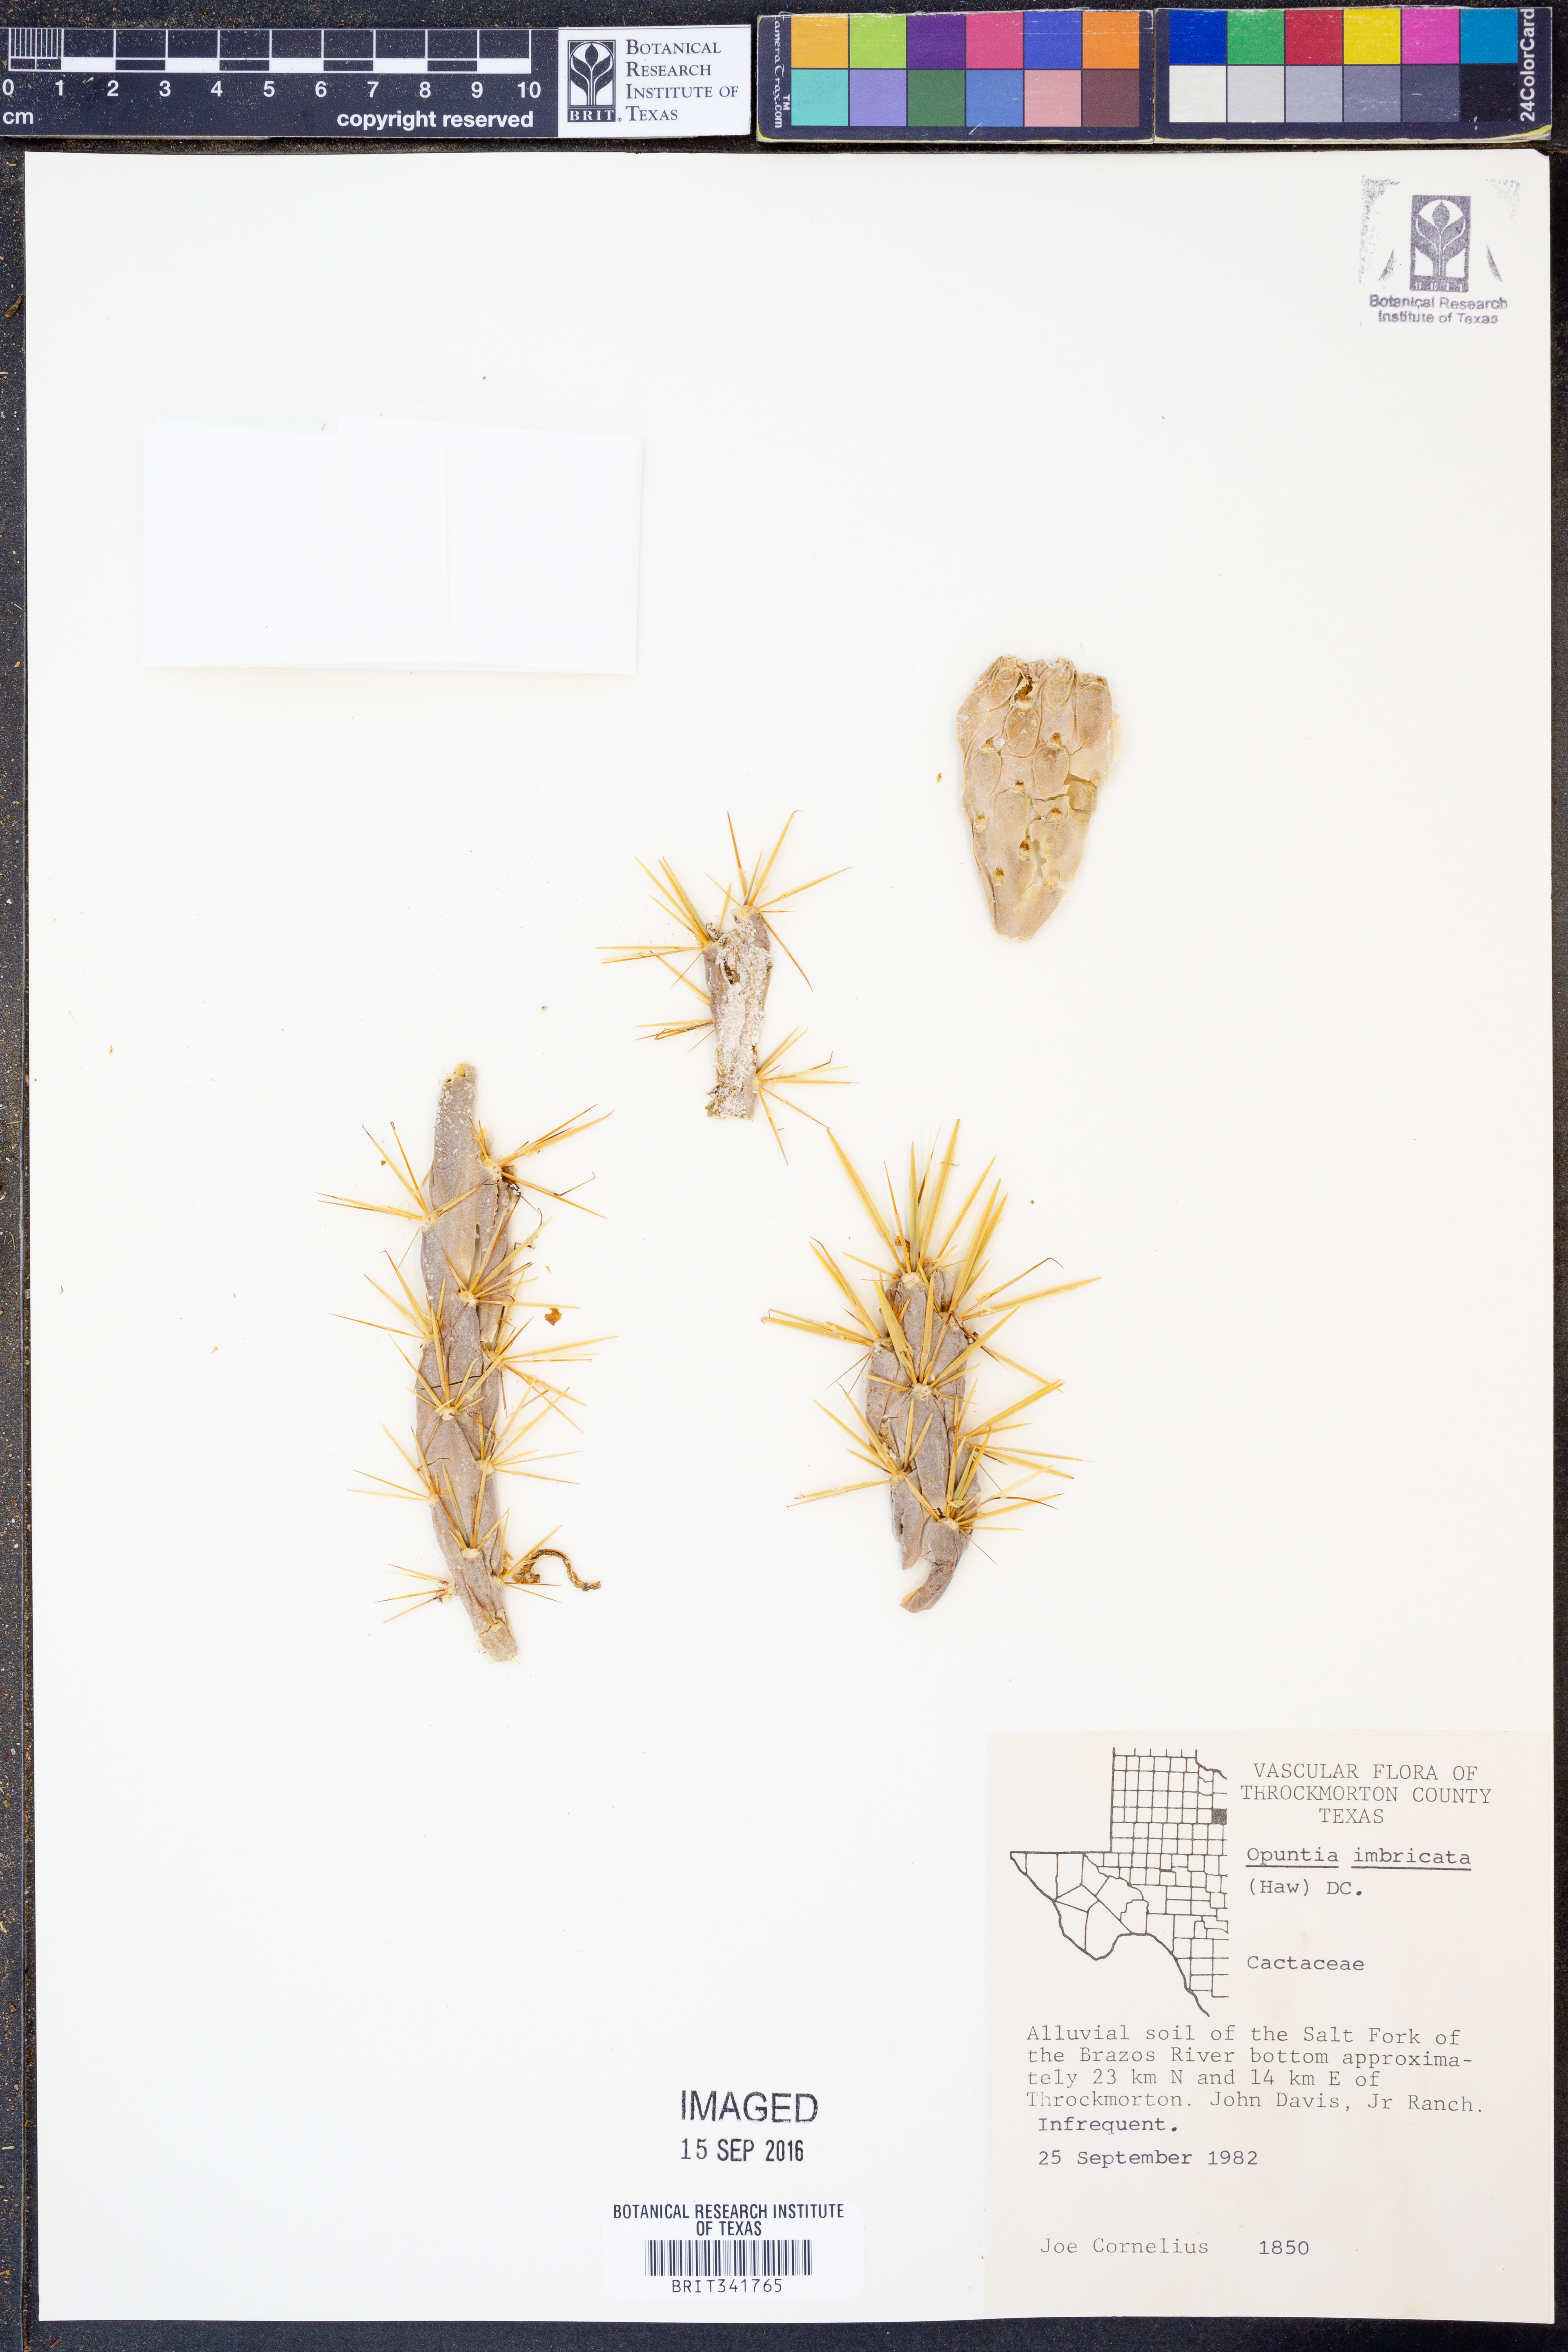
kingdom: Plantae
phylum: Tracheophyta
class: Magnoliopsida
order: Caryophyllales
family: Cactaceae
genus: Cylindropuntia
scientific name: Cylindropuntia davisii
